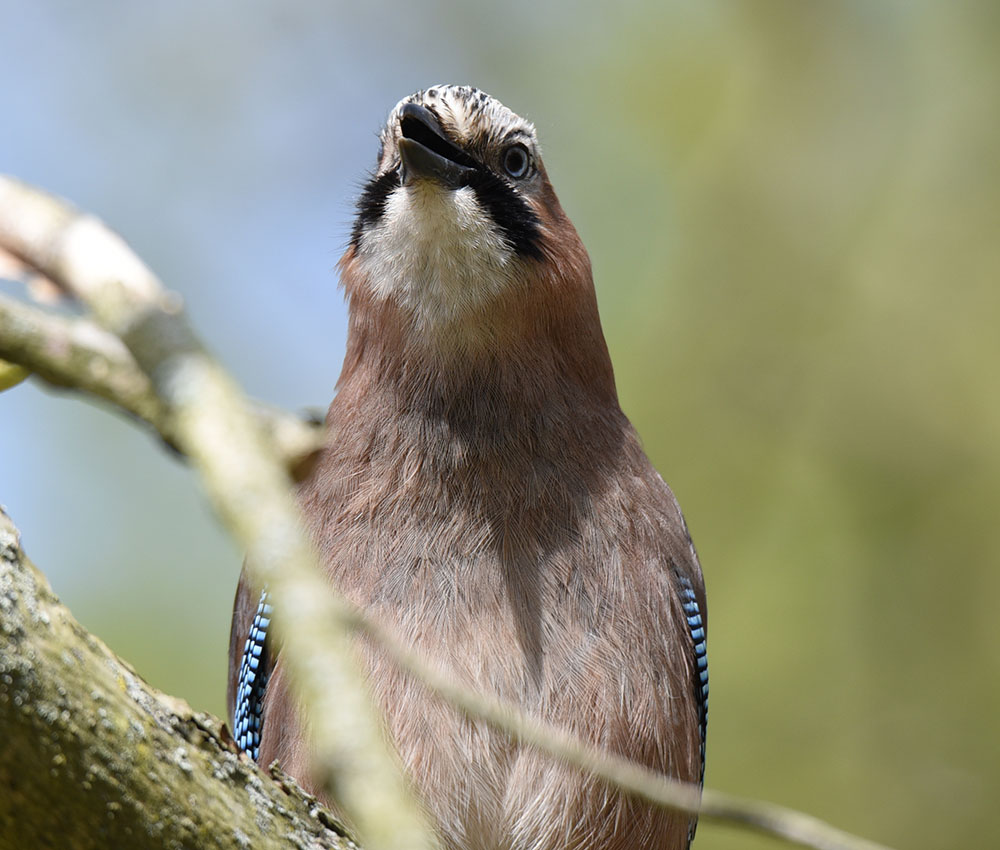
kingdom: Animalia
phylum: Chordata
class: Aves
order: Passeriformes
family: Corvidae
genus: Garrulus
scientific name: Garrulus glandarius
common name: Eurasian jay
